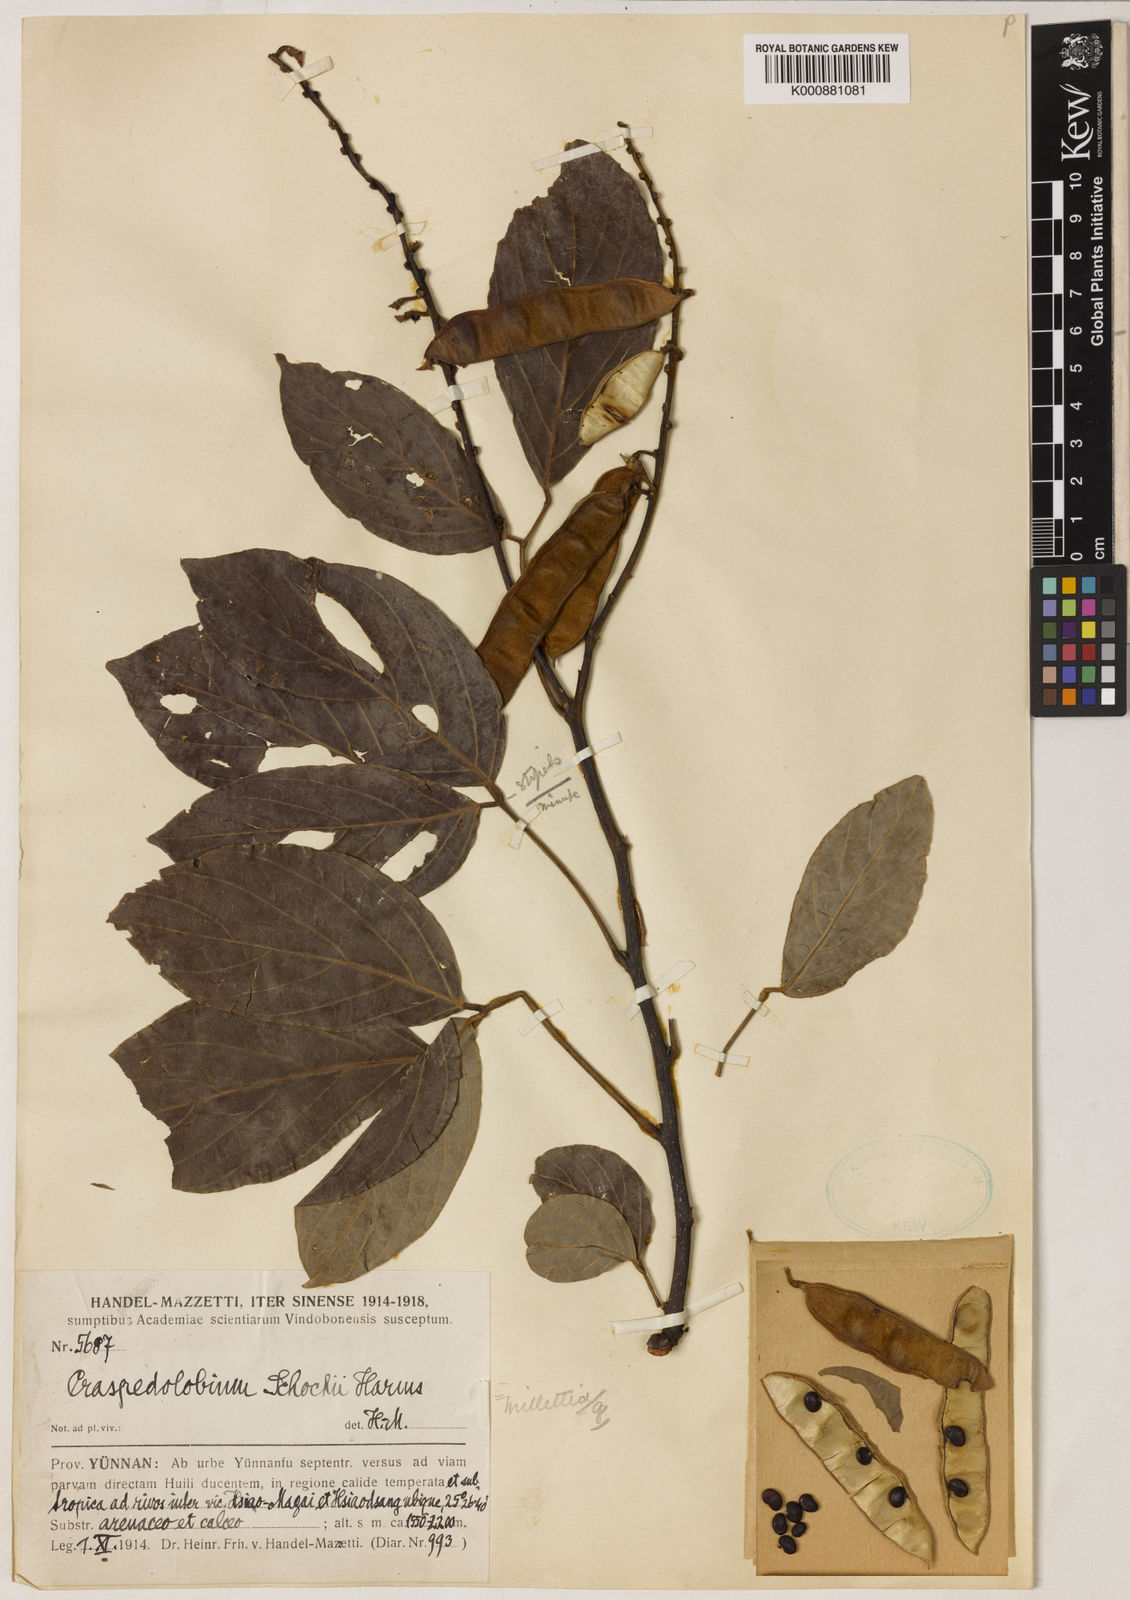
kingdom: Plantae
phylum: Tracheophyta
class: Magnoliopsida
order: Fabales
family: Fabaceae
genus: Craspedolobium
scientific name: Craspedolobium unijugum
